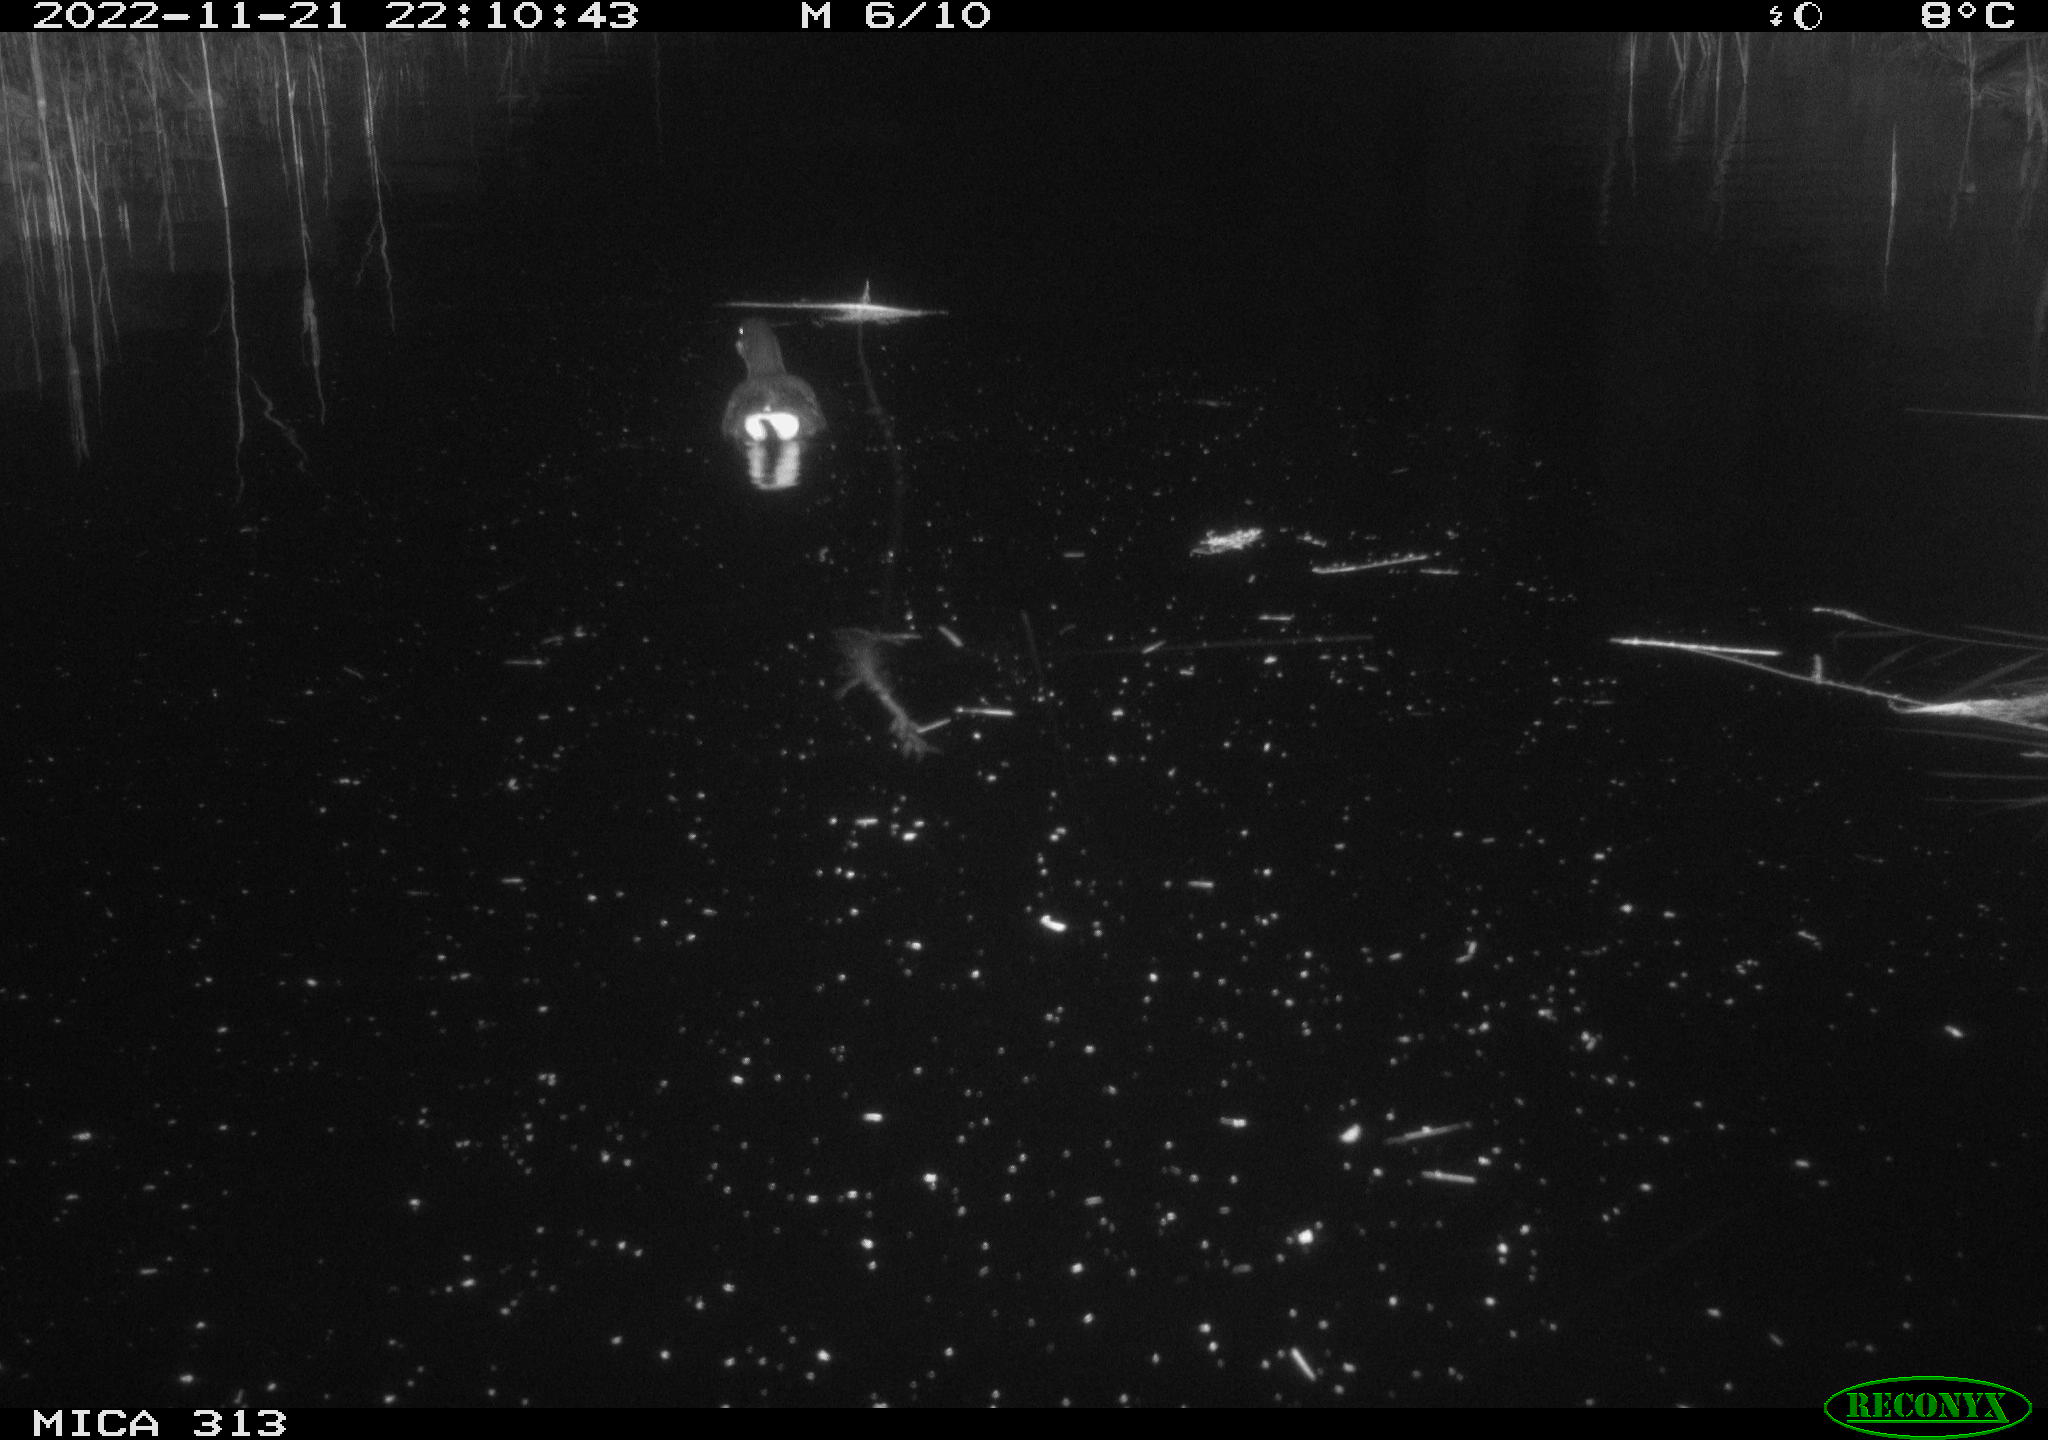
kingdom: Animalia
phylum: Chordata
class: Aves
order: Gruiformes
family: Rallidae
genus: Gallinula
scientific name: Gallinula chloropus
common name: Common moorhen
